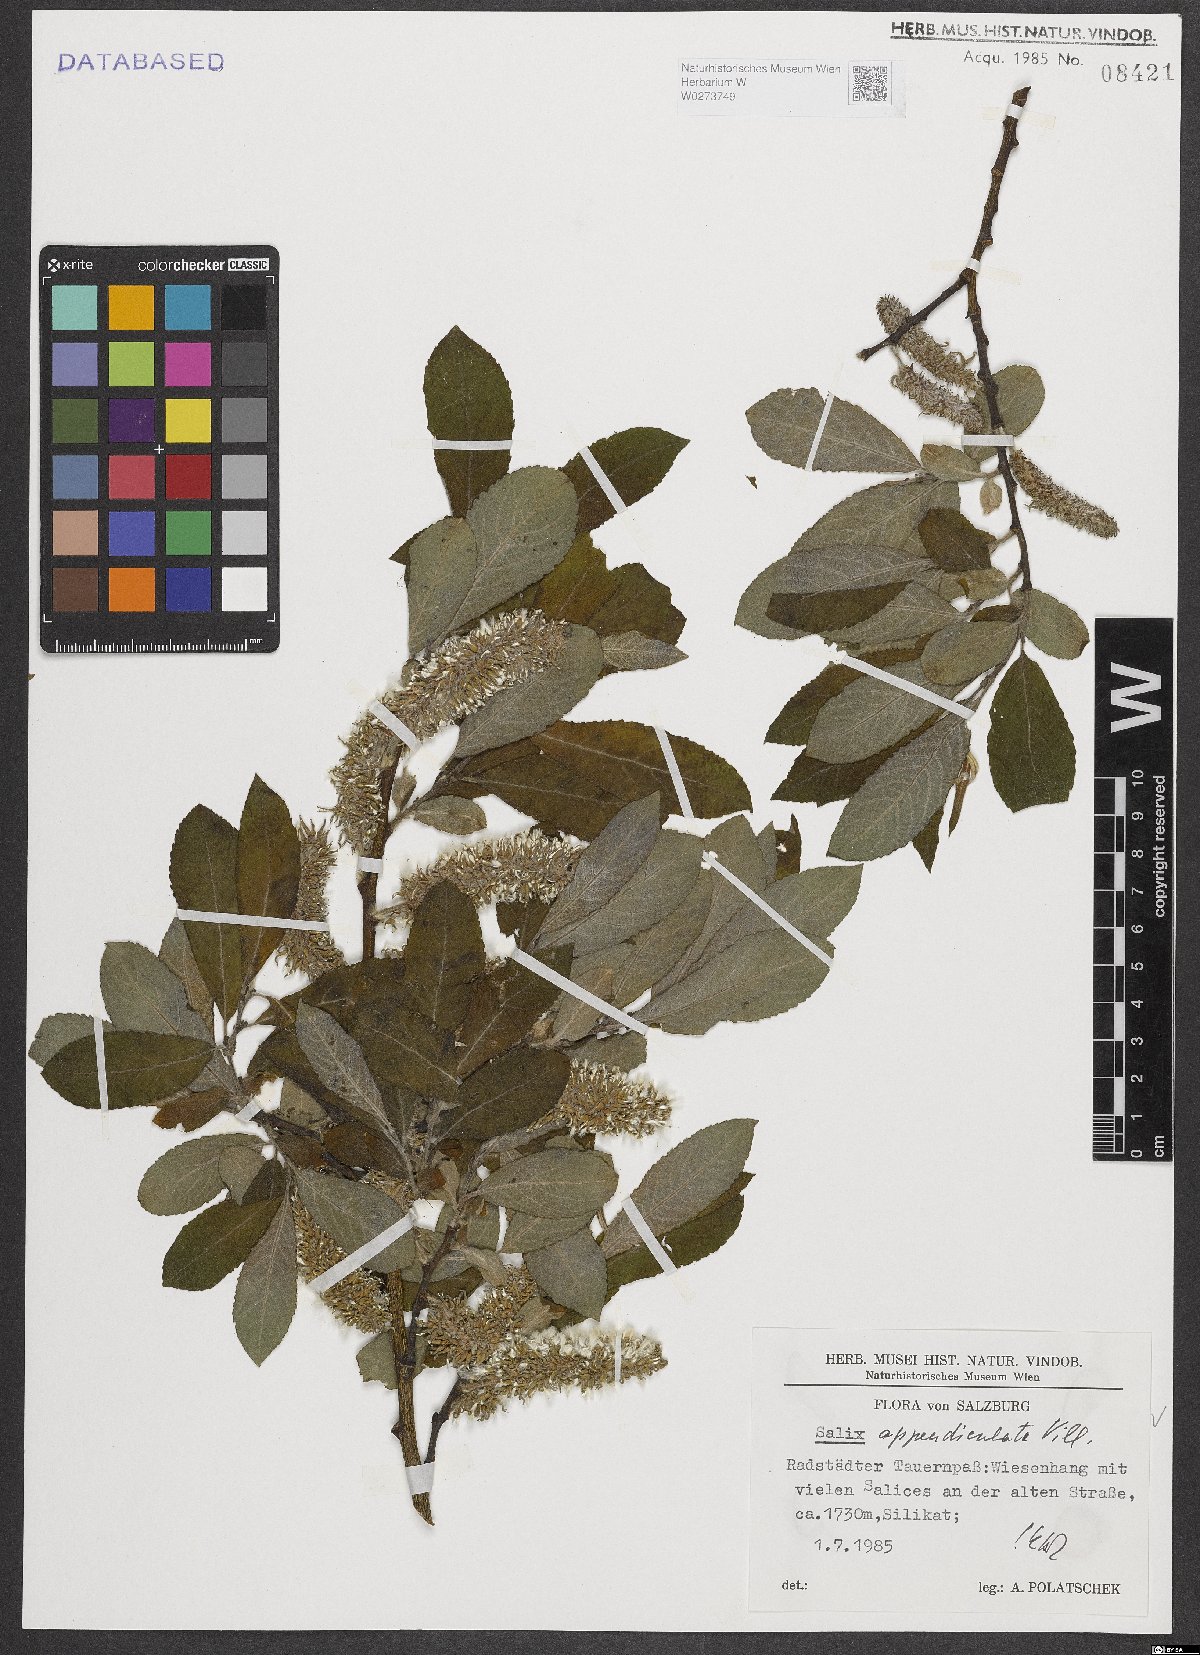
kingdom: Plantae
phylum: Tracheophyta
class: Magnoliopsida
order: Malpighiales
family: Salicaceae
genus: Salix
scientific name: Salix appendiculata
